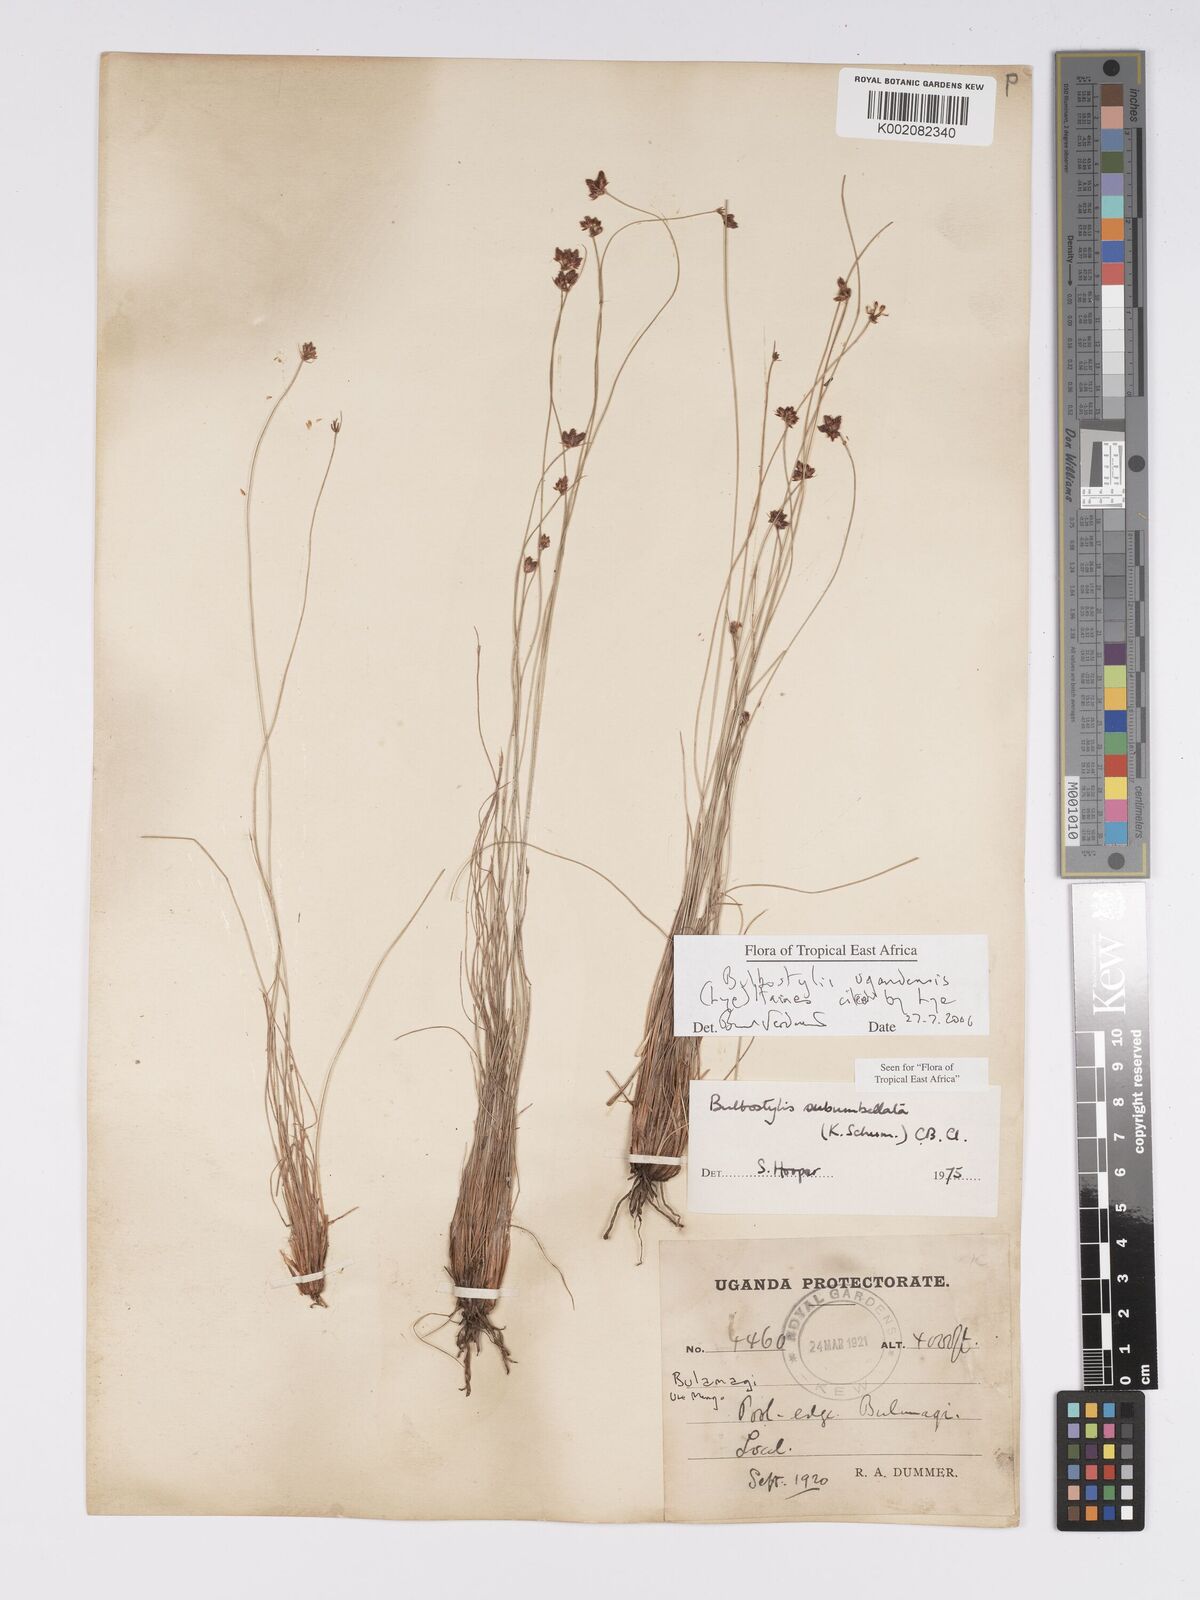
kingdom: Plantae
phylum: Tracheophyta
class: Liliopsida
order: Poales
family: Cyperaceae
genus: Bulbostylis
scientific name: Bulbostylis ugandensis
